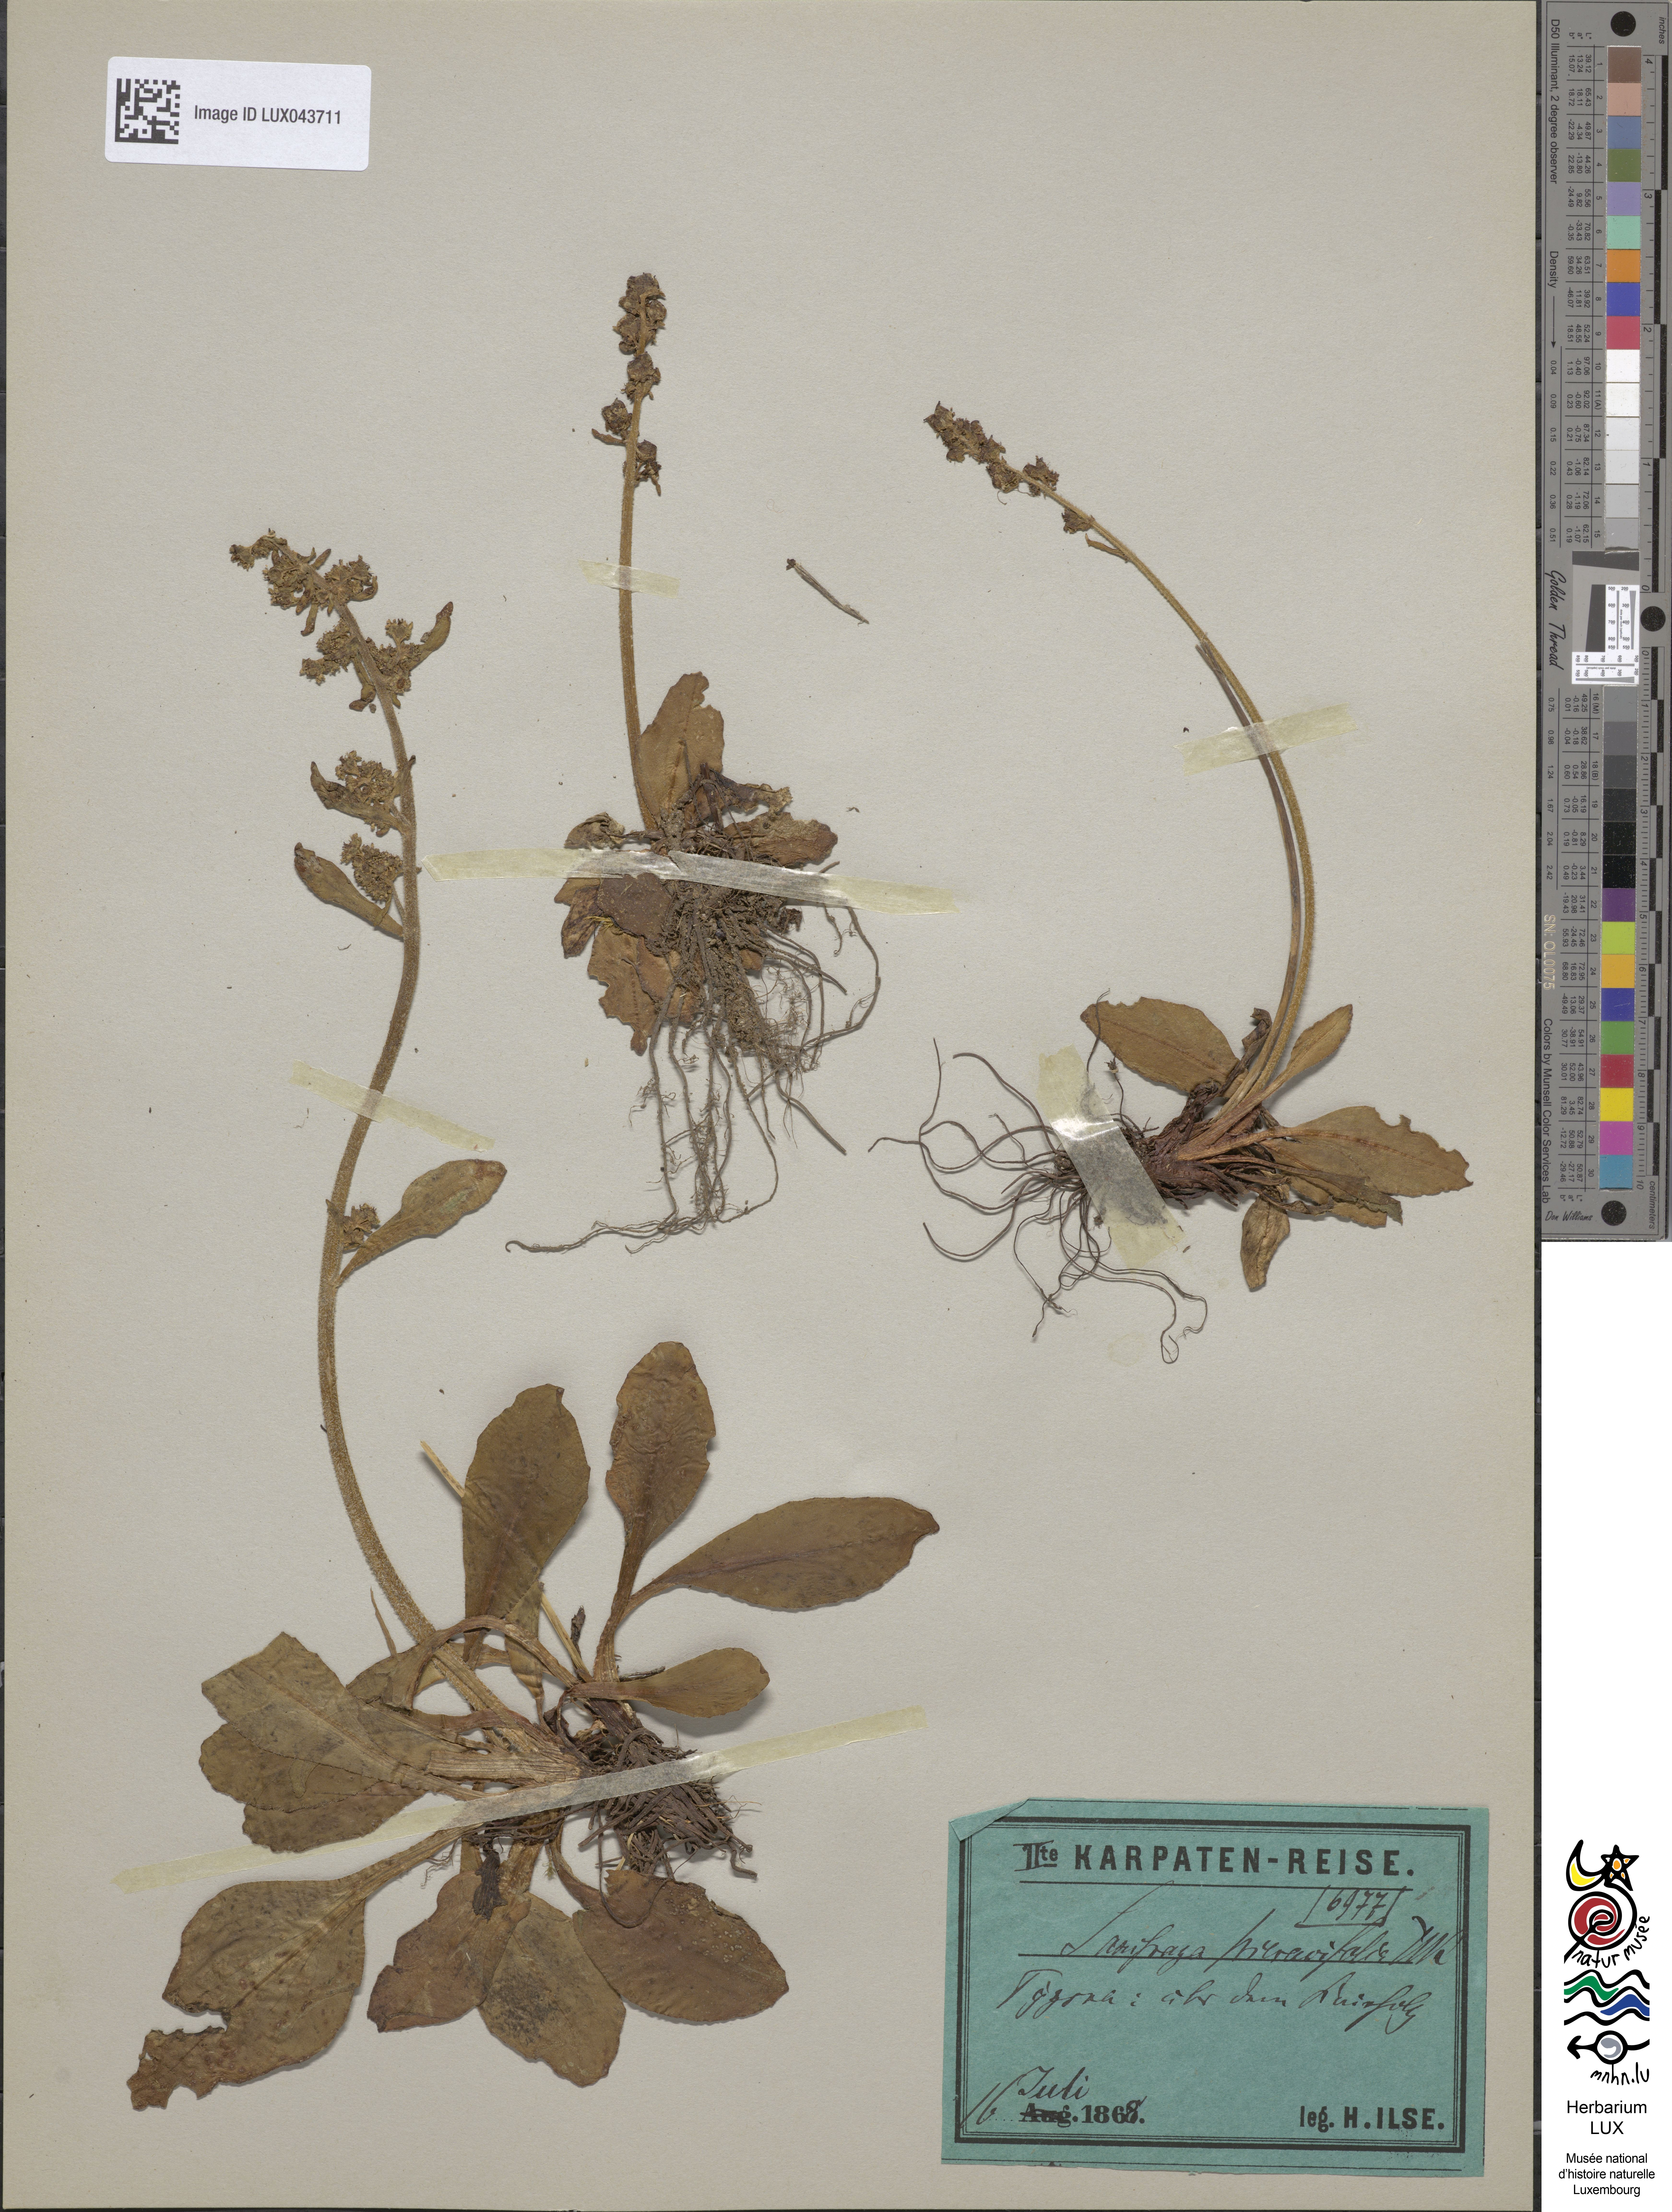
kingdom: Plantae
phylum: Tracheophyta
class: Magnoliopsida
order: Saxifragales
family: Saxifragaceae
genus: Micranthes
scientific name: Micranthes hieraciifolia
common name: Hawkweed-leaved saxifrage
